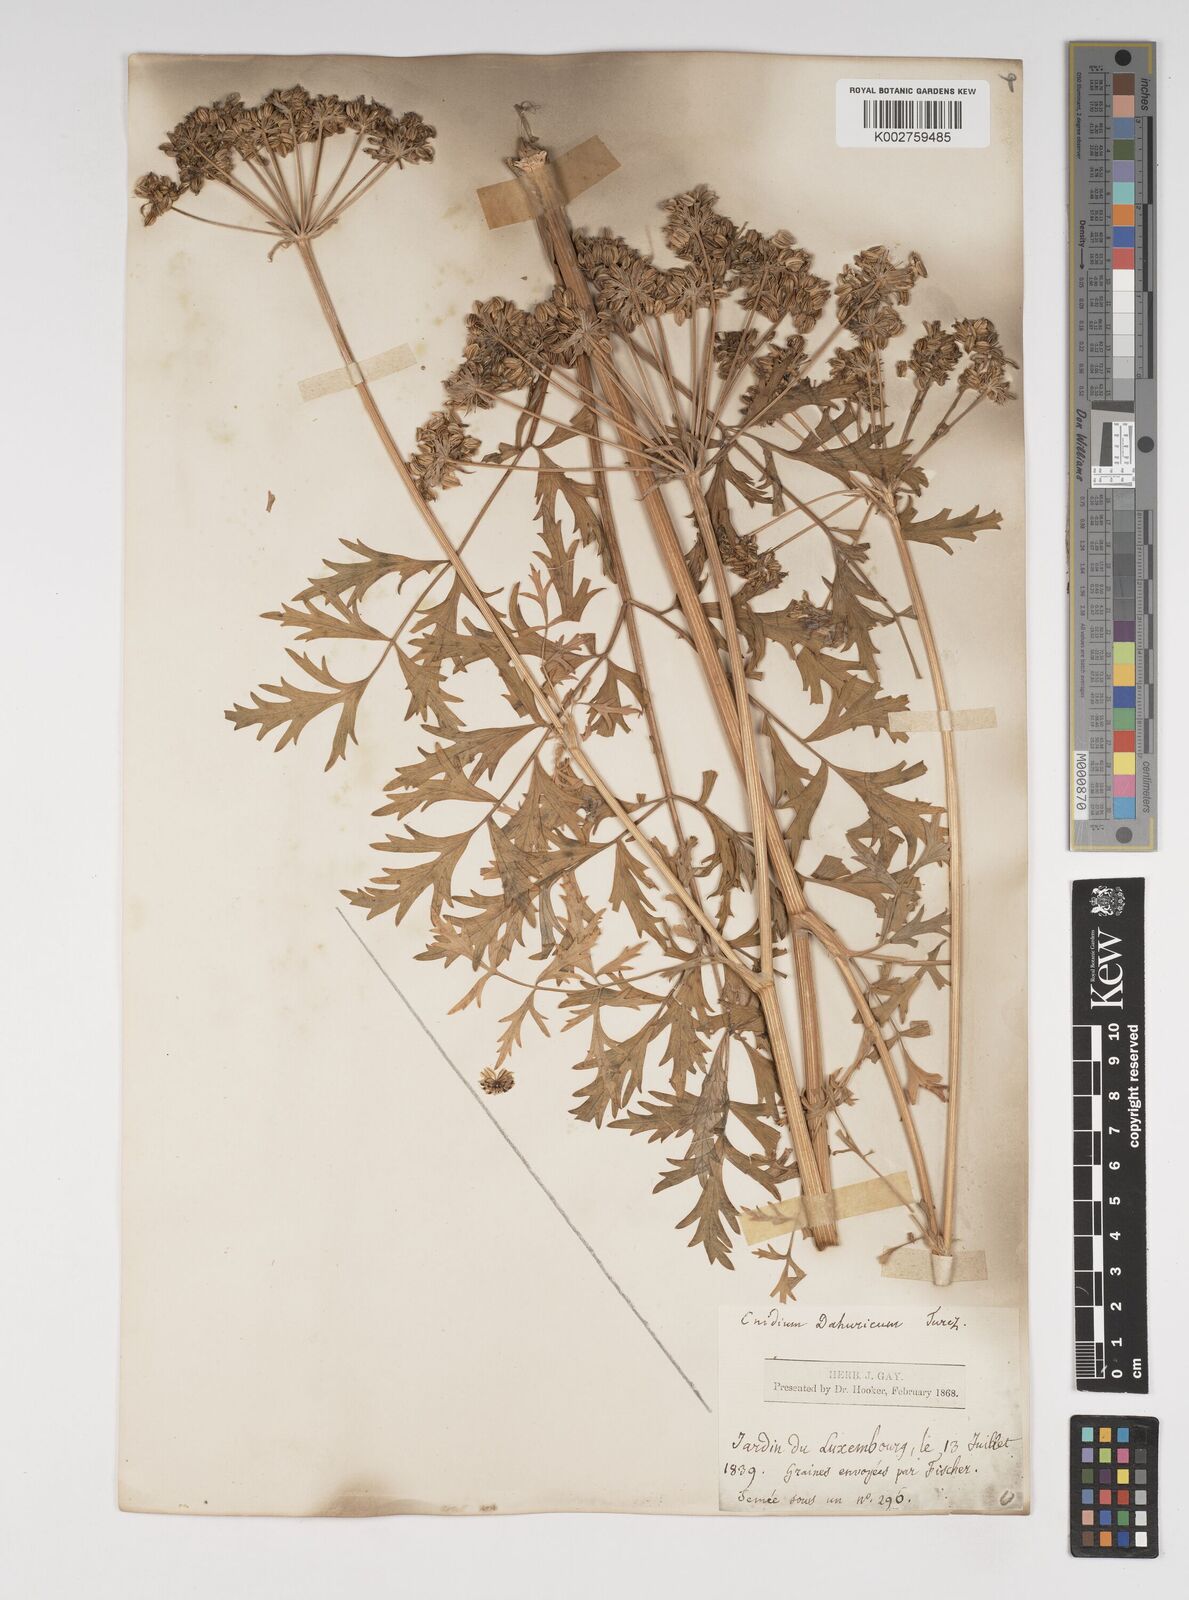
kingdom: Plantae
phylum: Tracheophyta
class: Magnoliopsida
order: Apiales
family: Apiaceae
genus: Cnidium
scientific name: Cnidium dauricum
